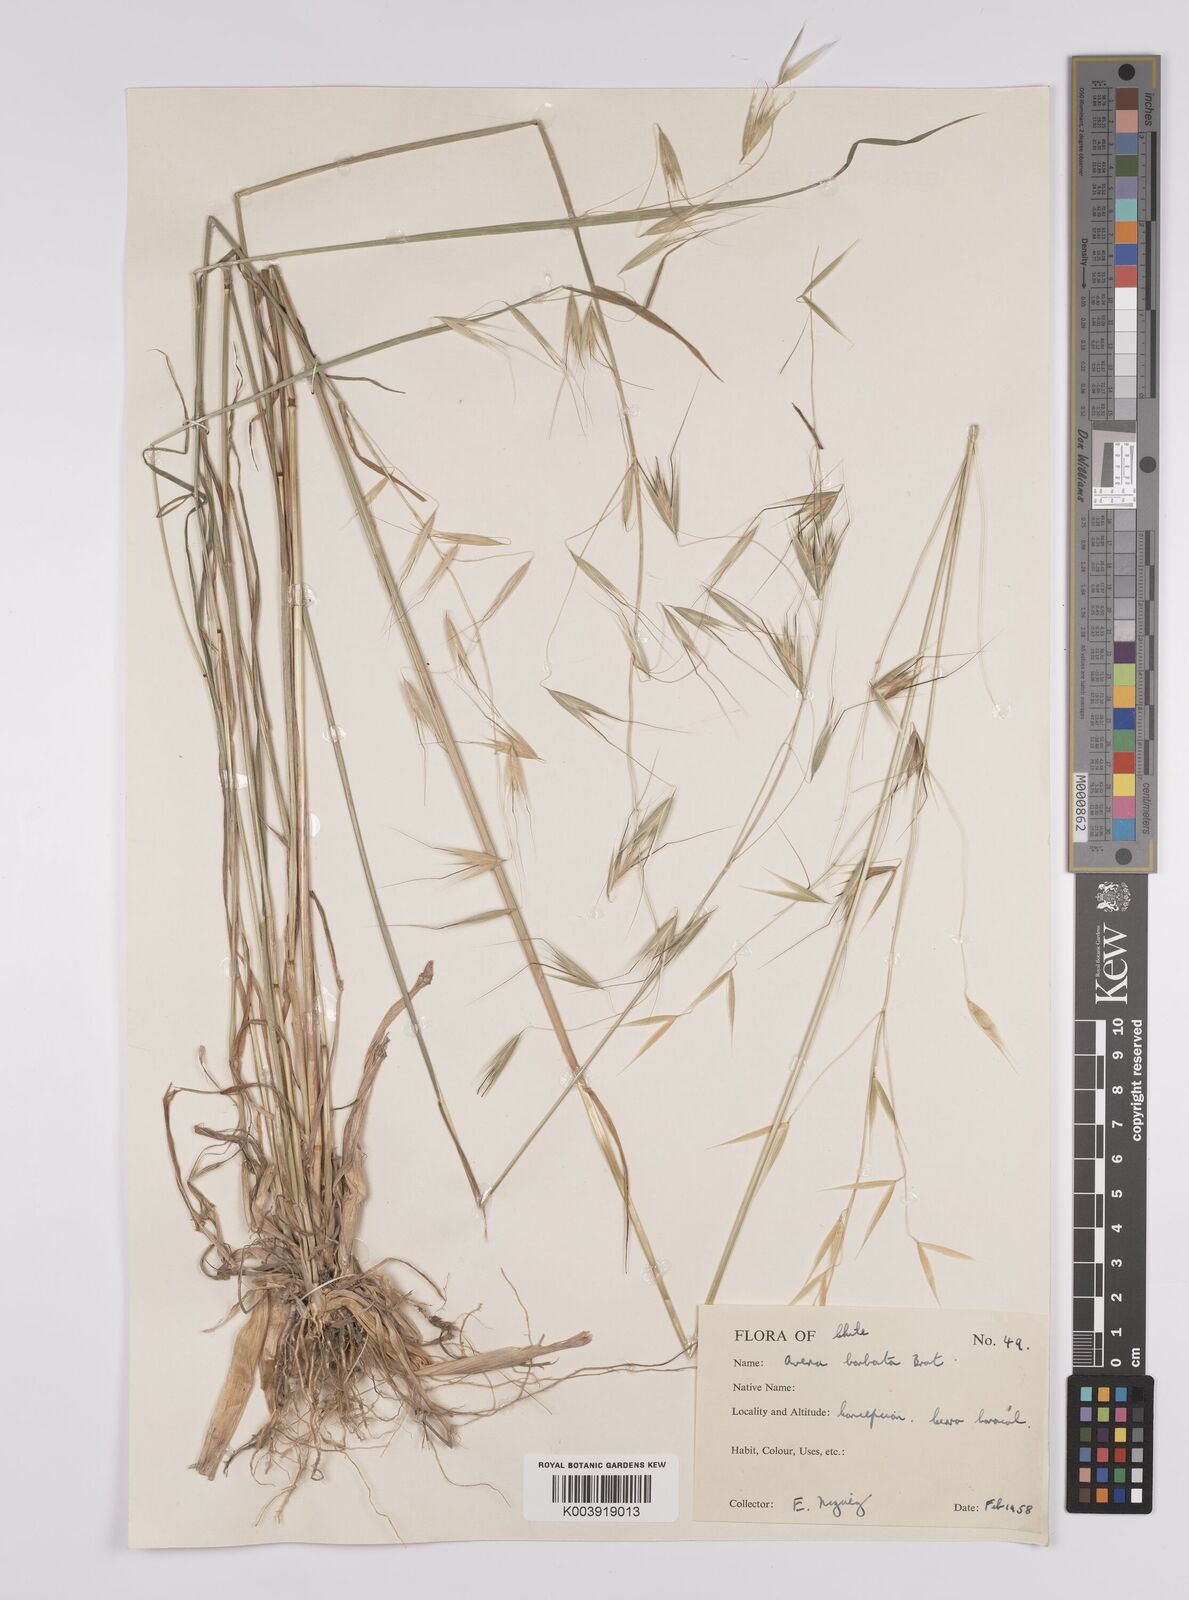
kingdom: Plantae
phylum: Tracheophyta
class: Liliopsida
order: Poales
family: Poaceae
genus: Avena
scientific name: Avena barbata
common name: Slender oat
